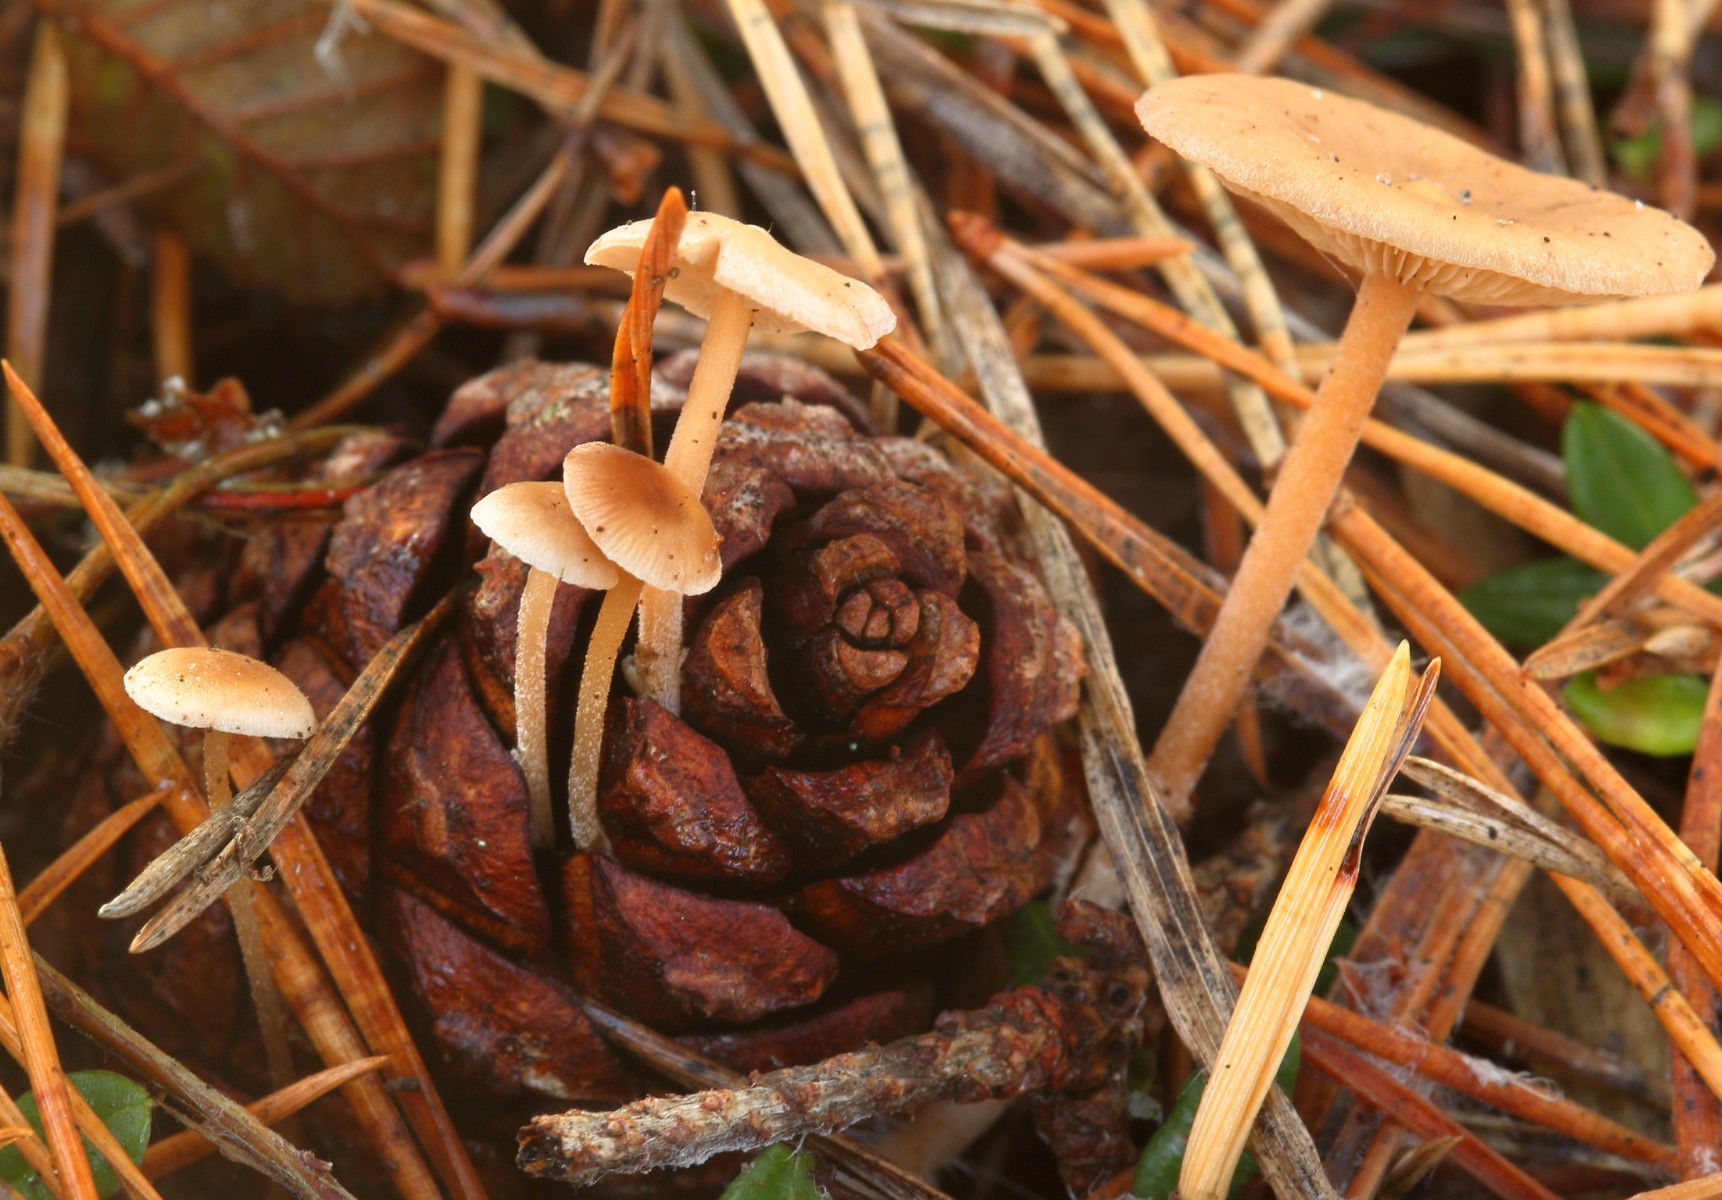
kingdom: Fungi
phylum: Basidiomycota
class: Agaricomycetes
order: Agaricales
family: Marasmiaceae
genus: Baeospora
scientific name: Baeospora myosura
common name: koglebruskhat
